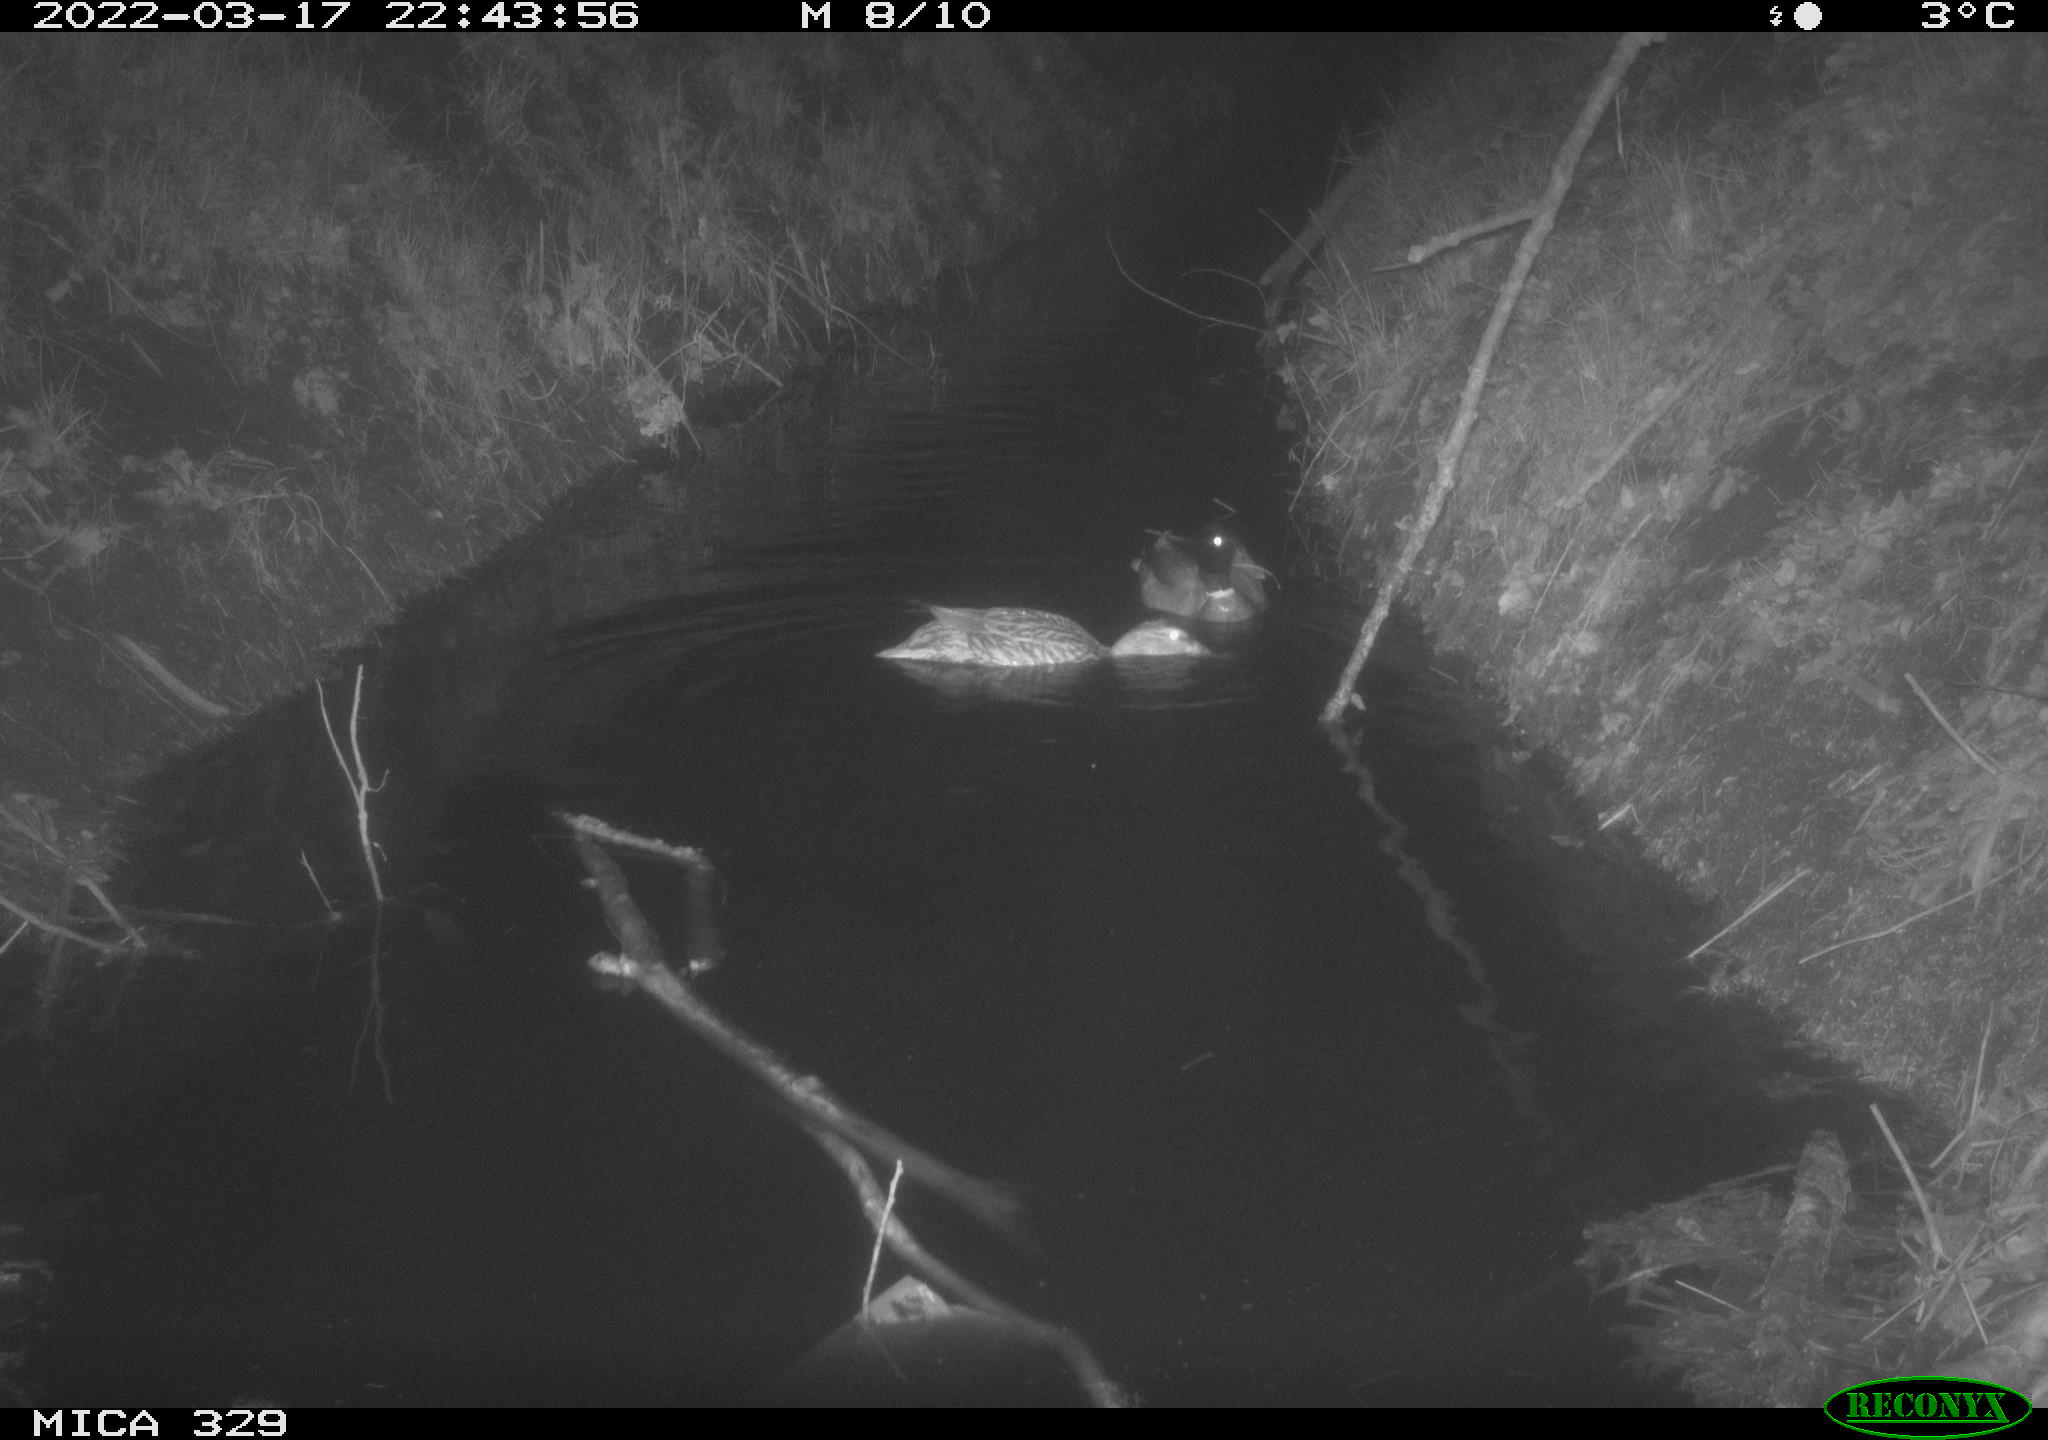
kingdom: Animalia
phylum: Chordata
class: Aves
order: Anseriformes
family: Anatidae
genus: Anas
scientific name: Anas platyrhynchos
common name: Mallard
